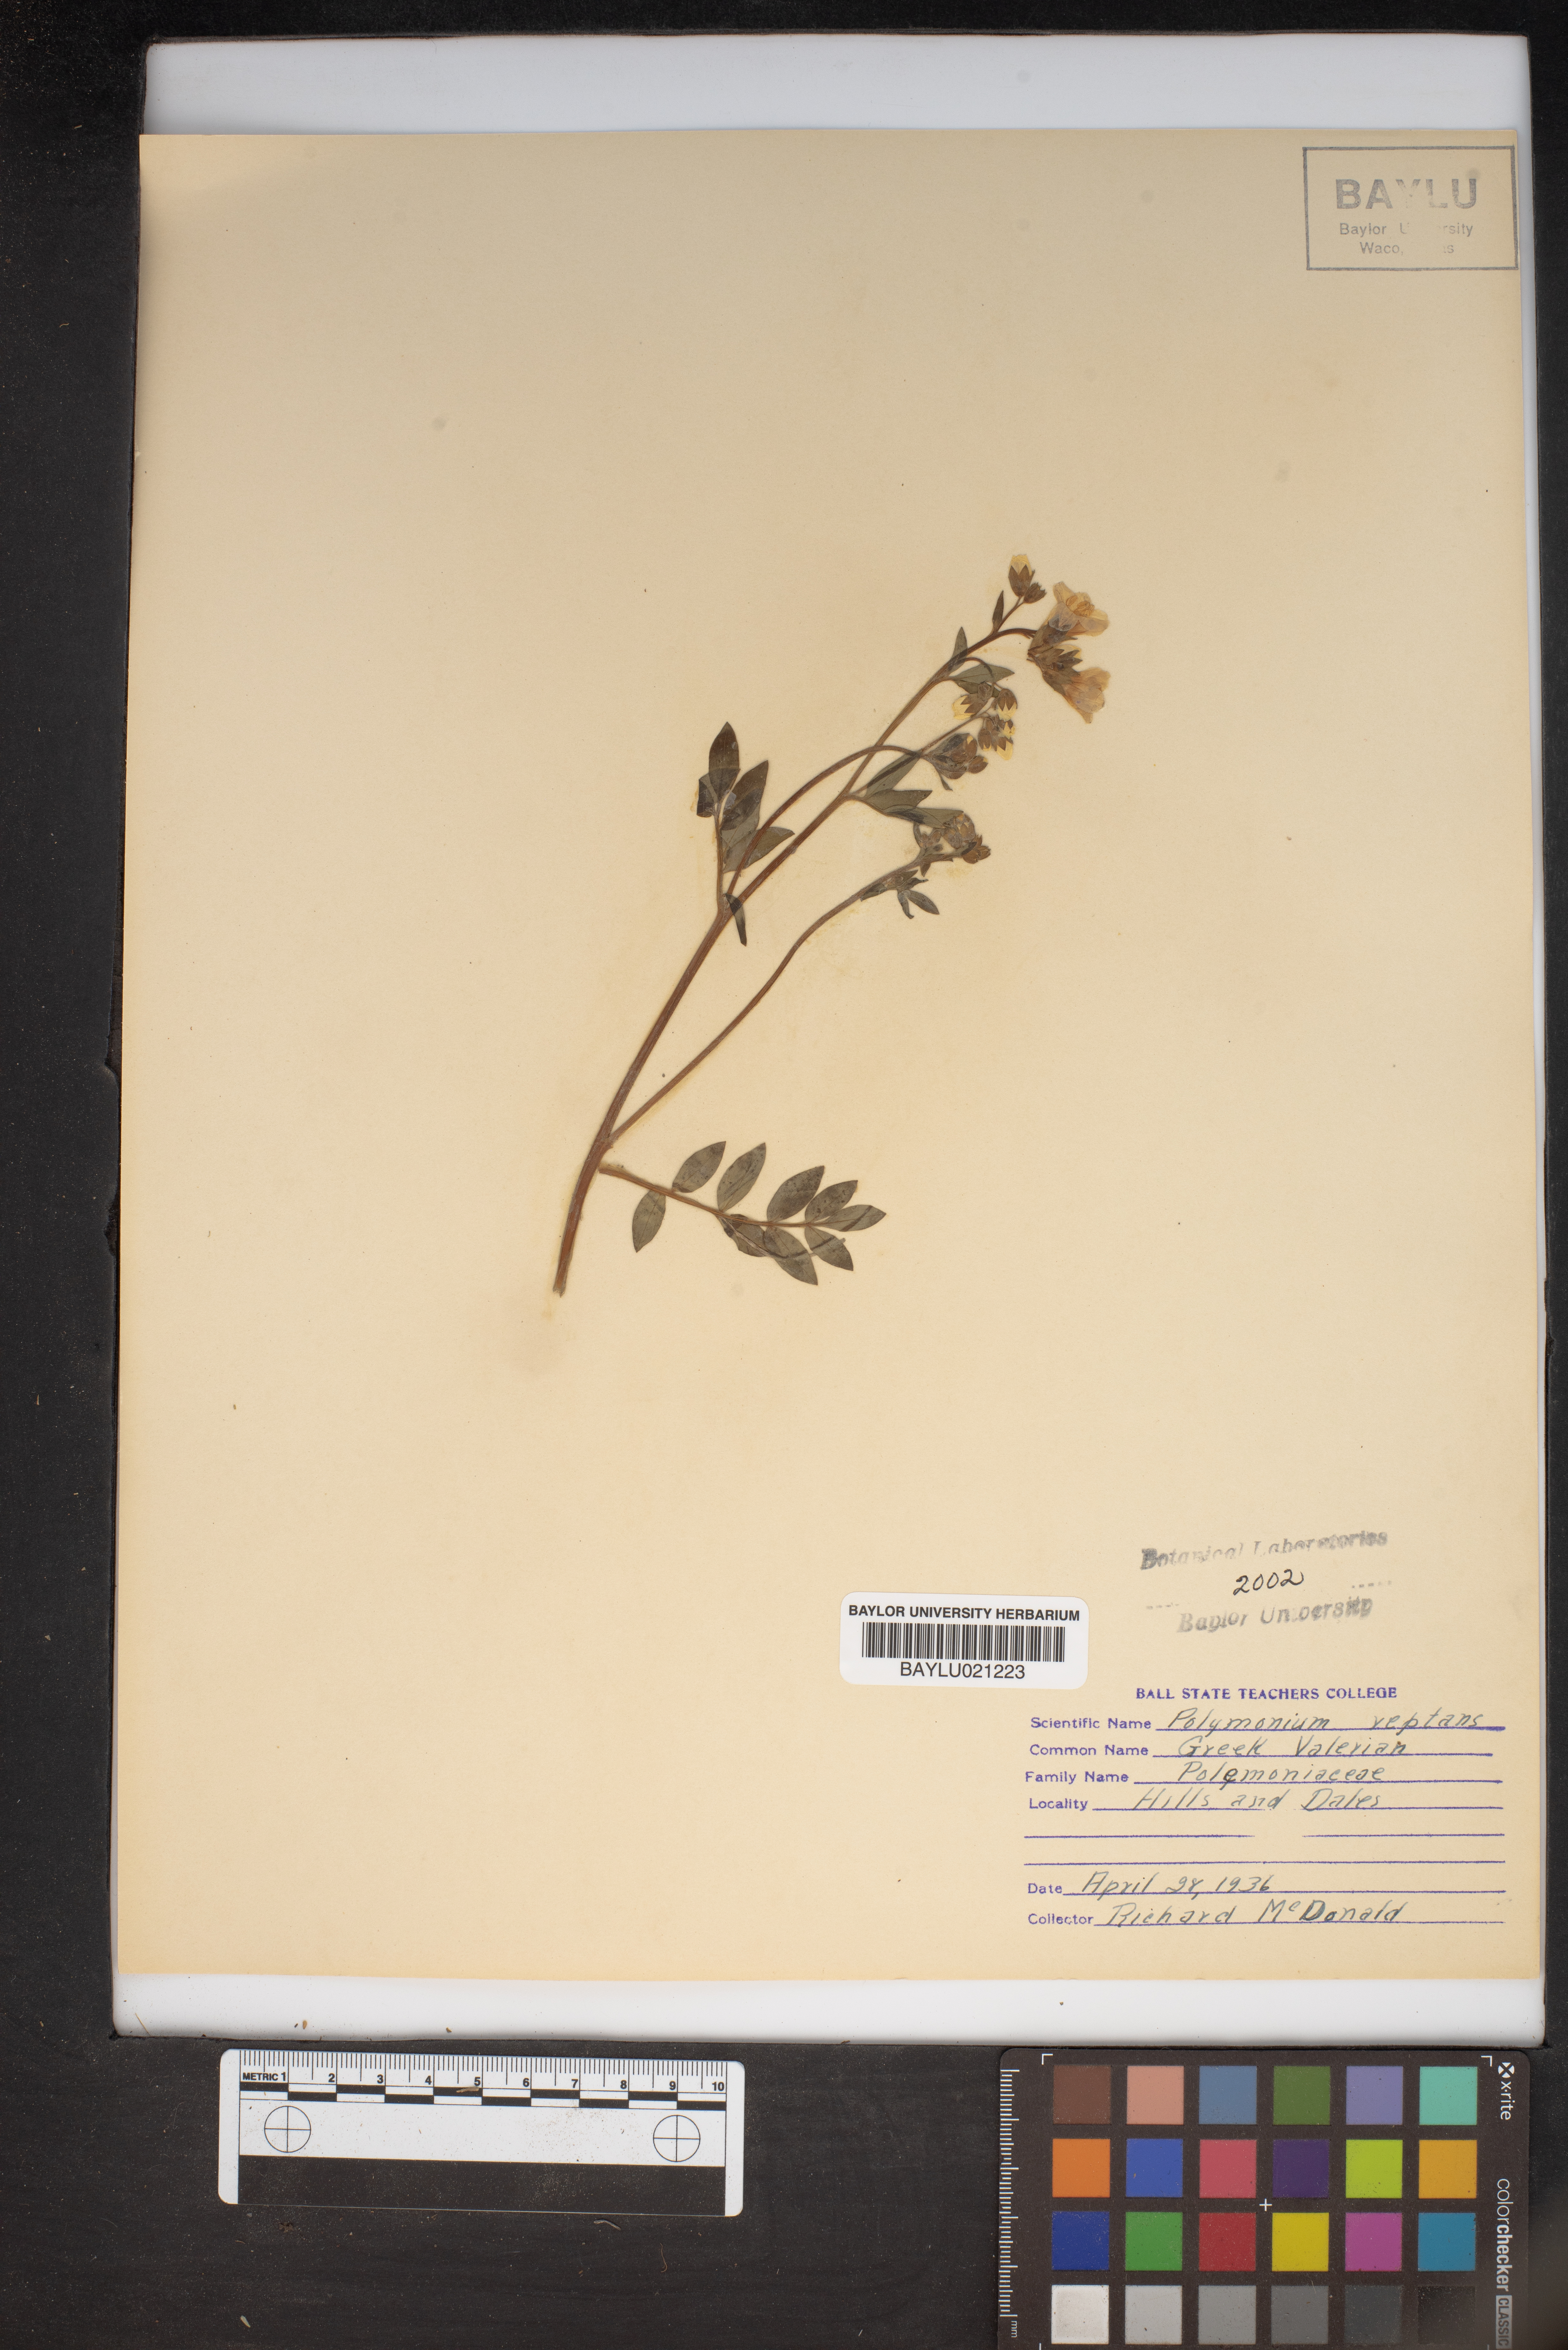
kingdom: Plantae
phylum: Tracheophyta
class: Magnoliopsida
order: Ericales
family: Polemoniaceae
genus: Polemonium
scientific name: Polemonium reptans
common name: Creeping jacob's-ladder
